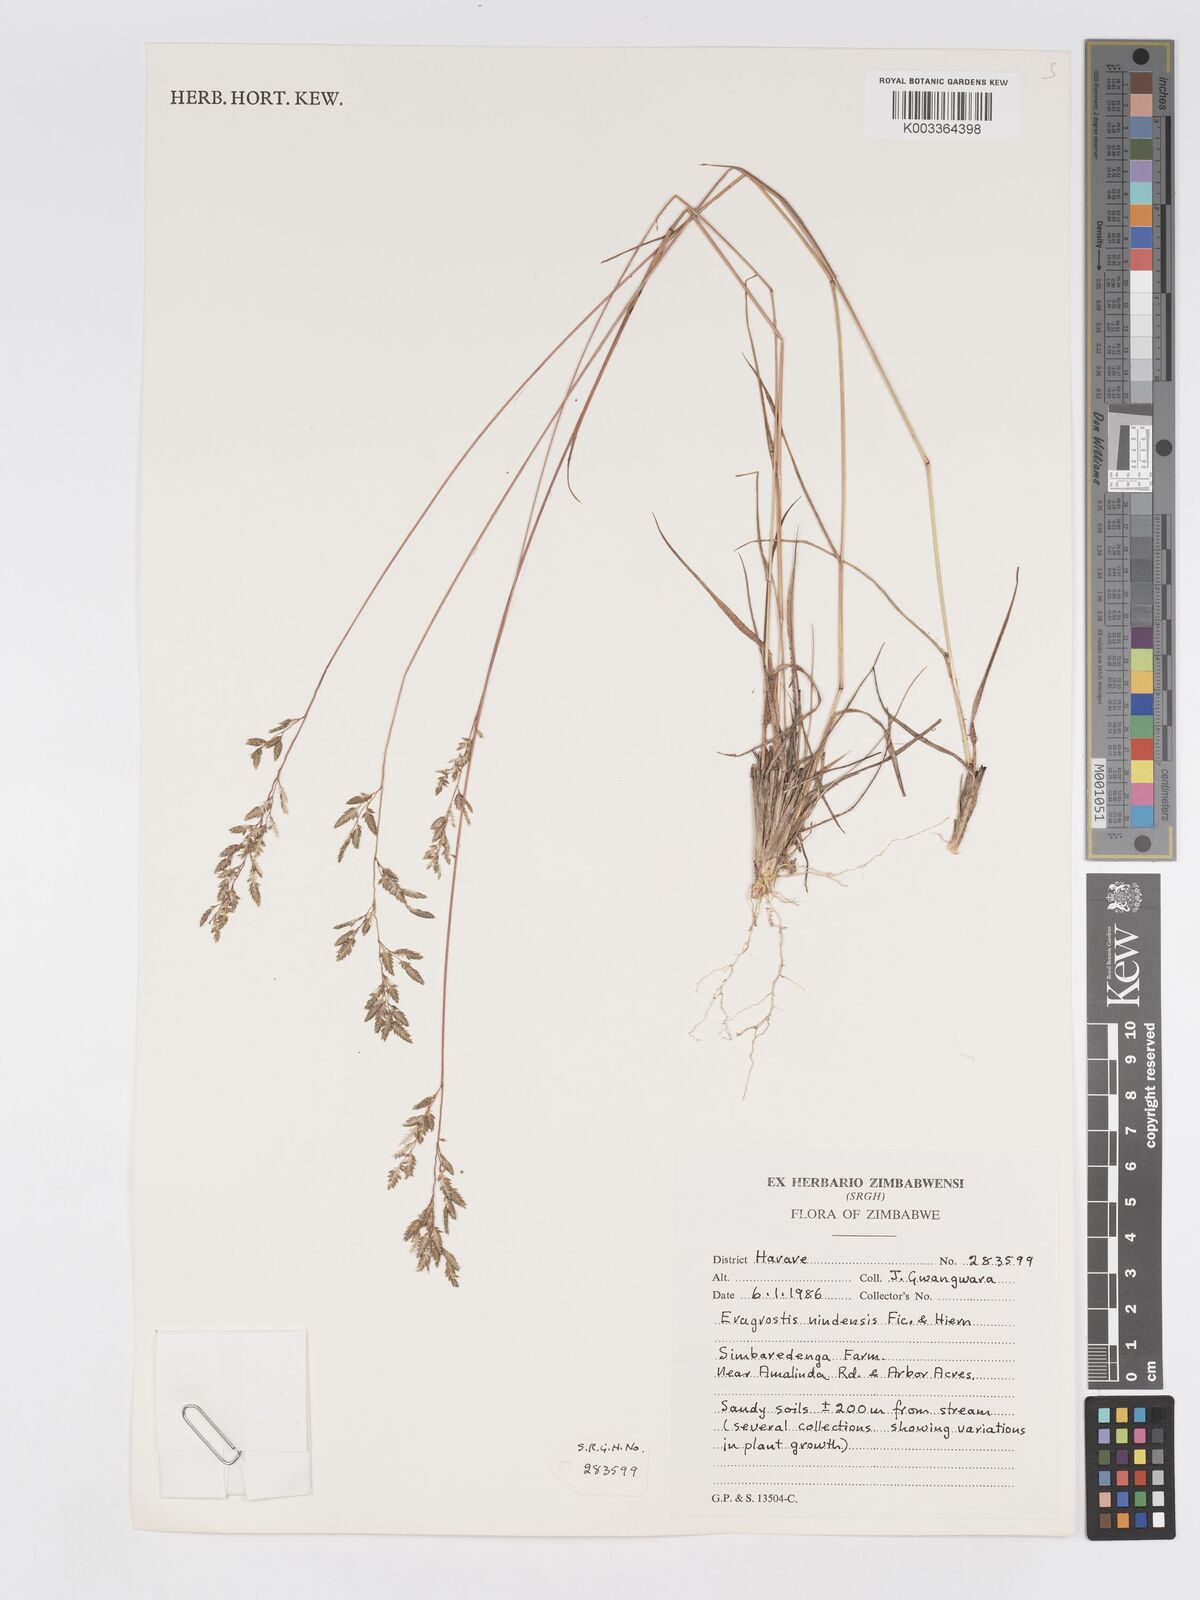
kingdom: Plantae
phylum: Tracheophyta
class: Liliopsida
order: Poales
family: Poaceae
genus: Eragrostis
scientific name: Eragrostis racemosa
